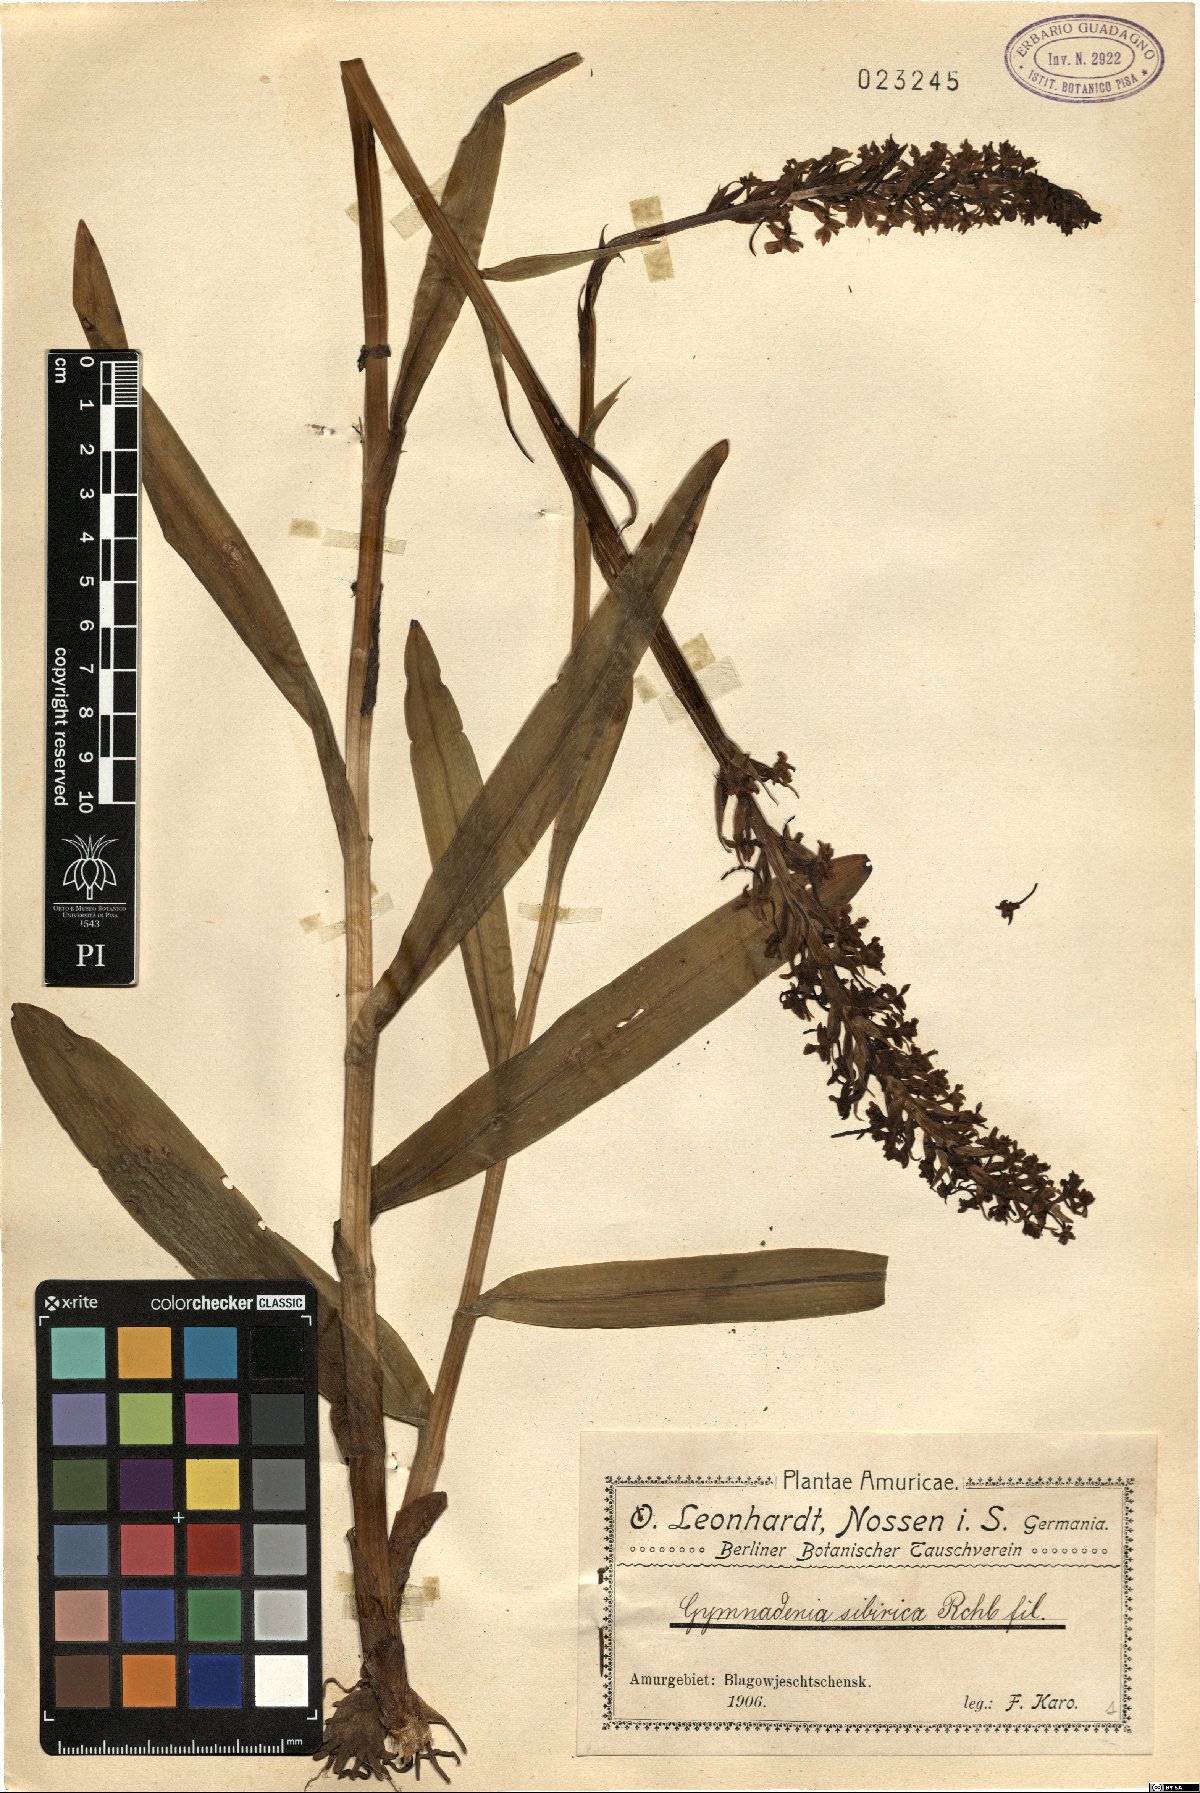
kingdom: Plantae
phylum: Tracheophyta
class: Liliopsida
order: Asparagales
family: Orchidaceae
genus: Gymnadenia
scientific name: Gymnadenia conopsea
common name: Fragrant orchid
